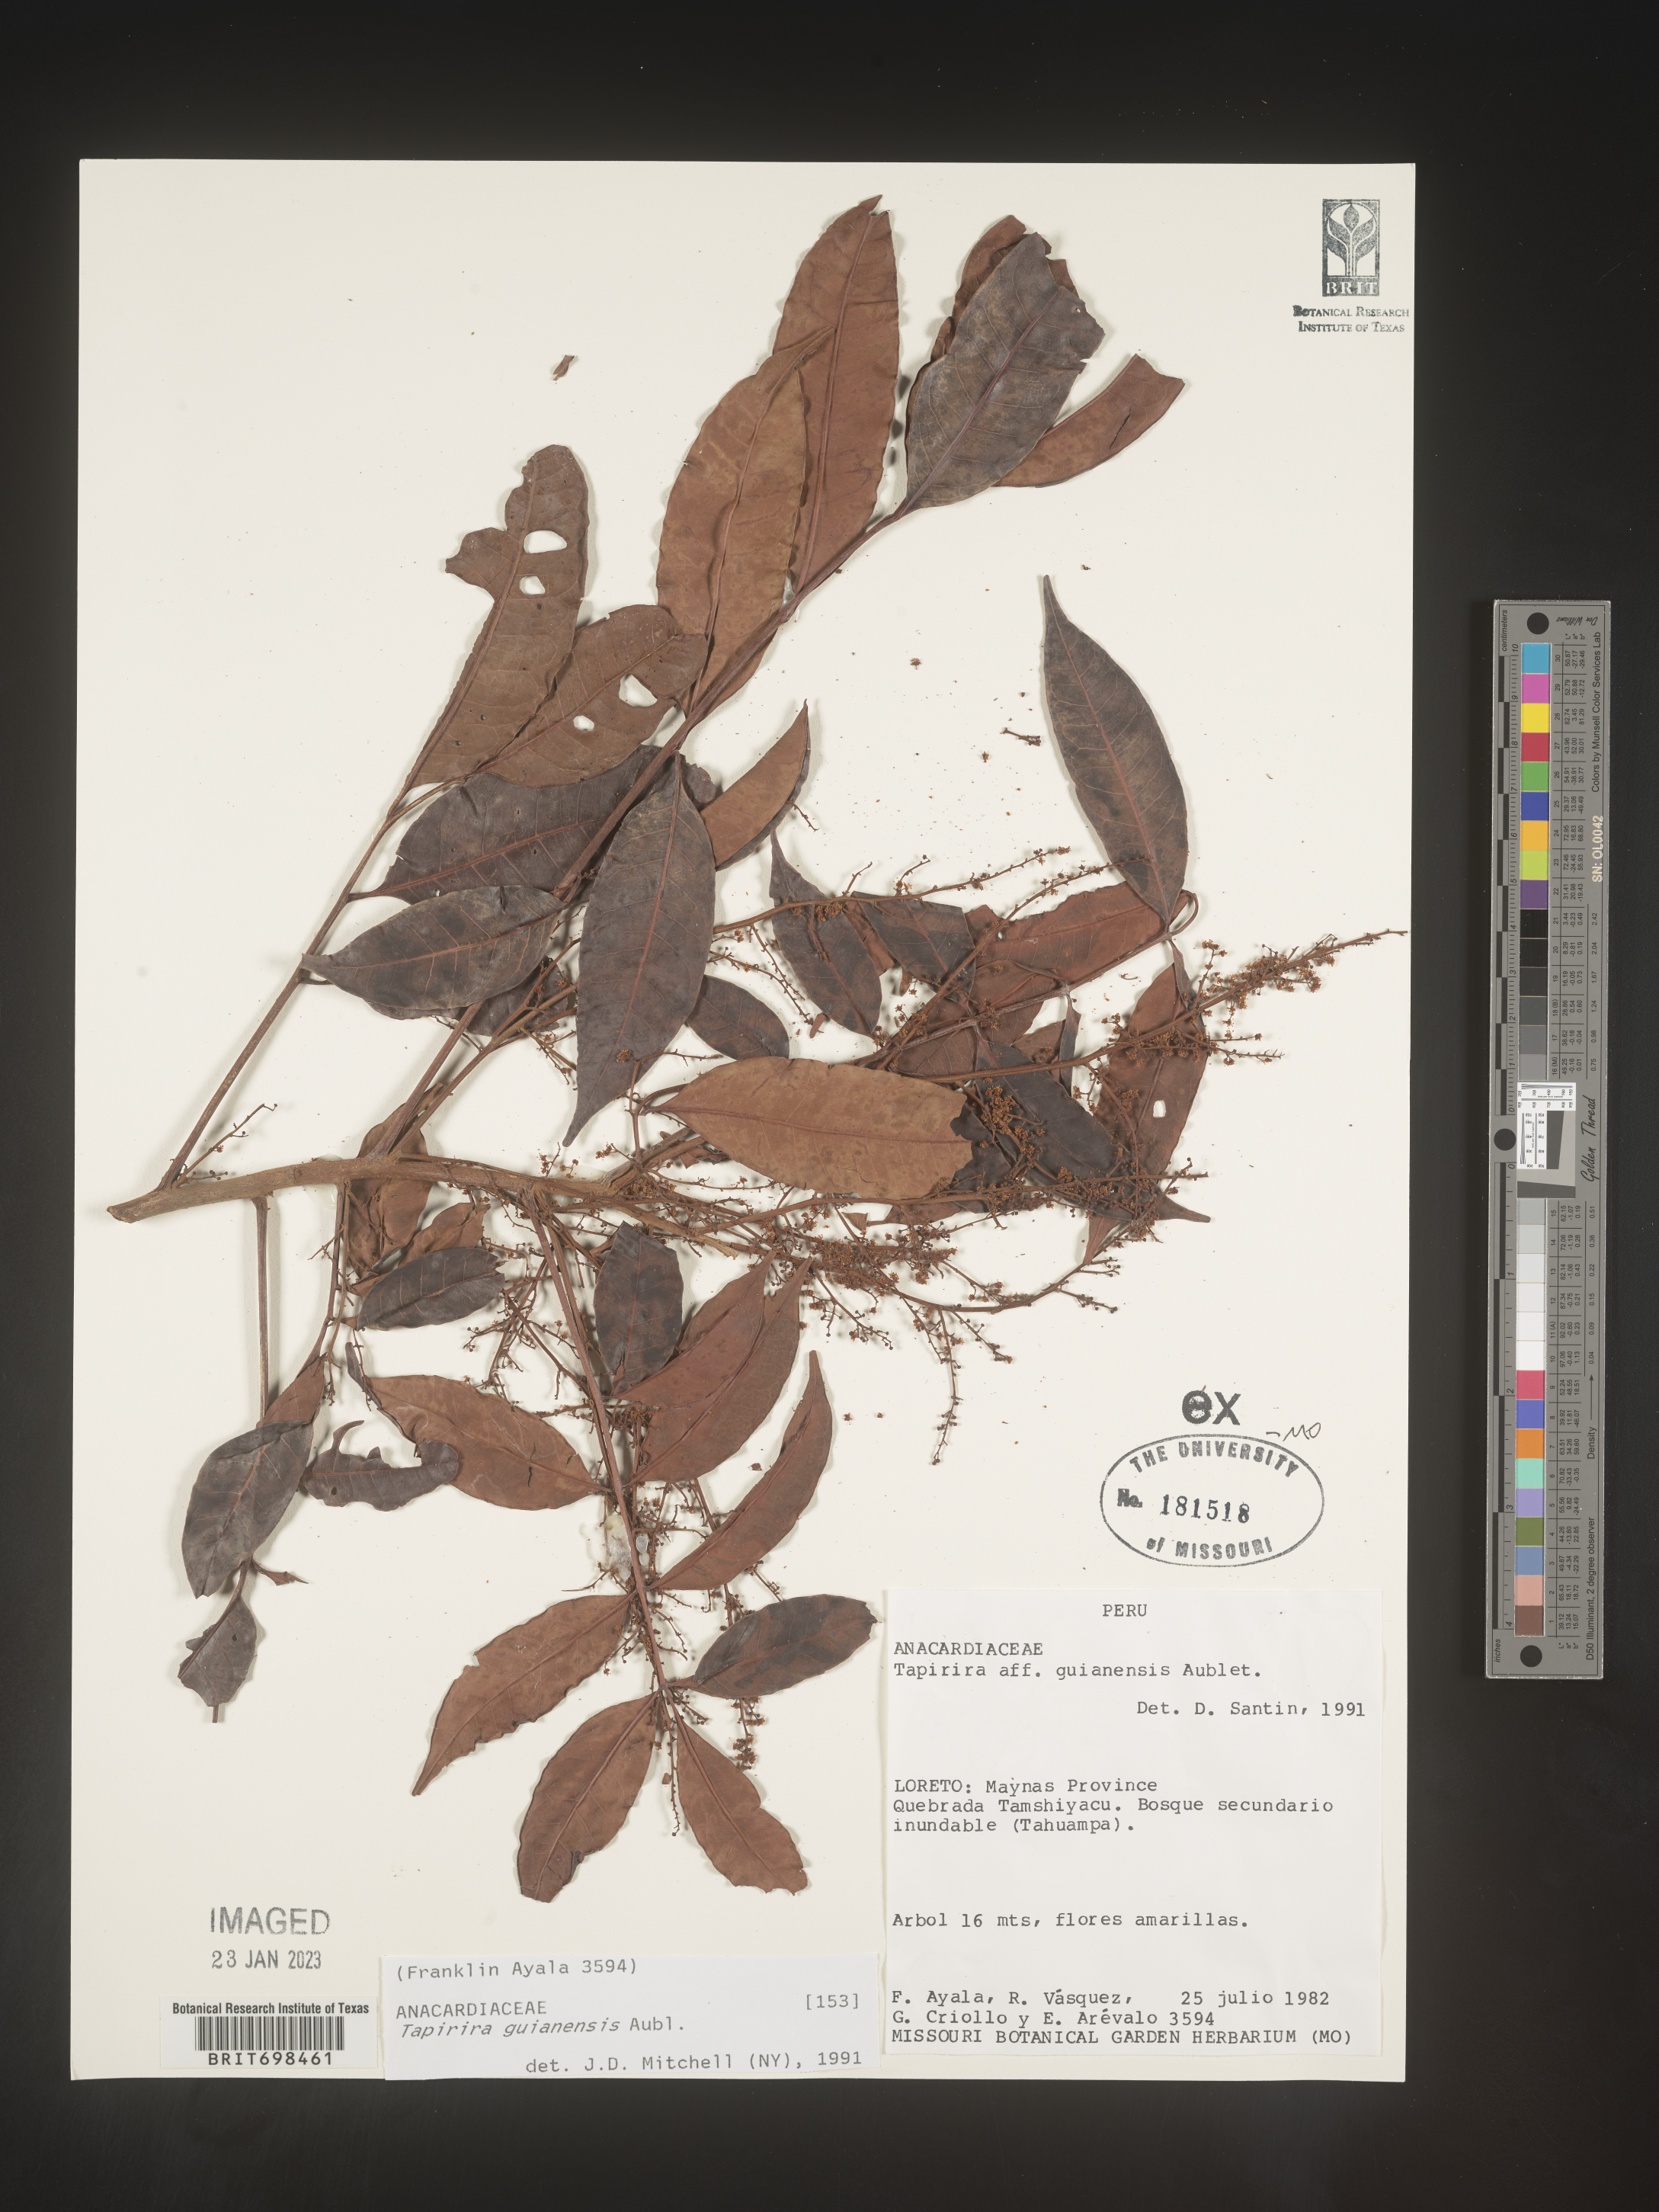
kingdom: Plantae
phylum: Tracheophyta
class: Magnoliopsida
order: Sapindales
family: Anacardiaceae
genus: Tapirira
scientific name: Tapirira guianensis
